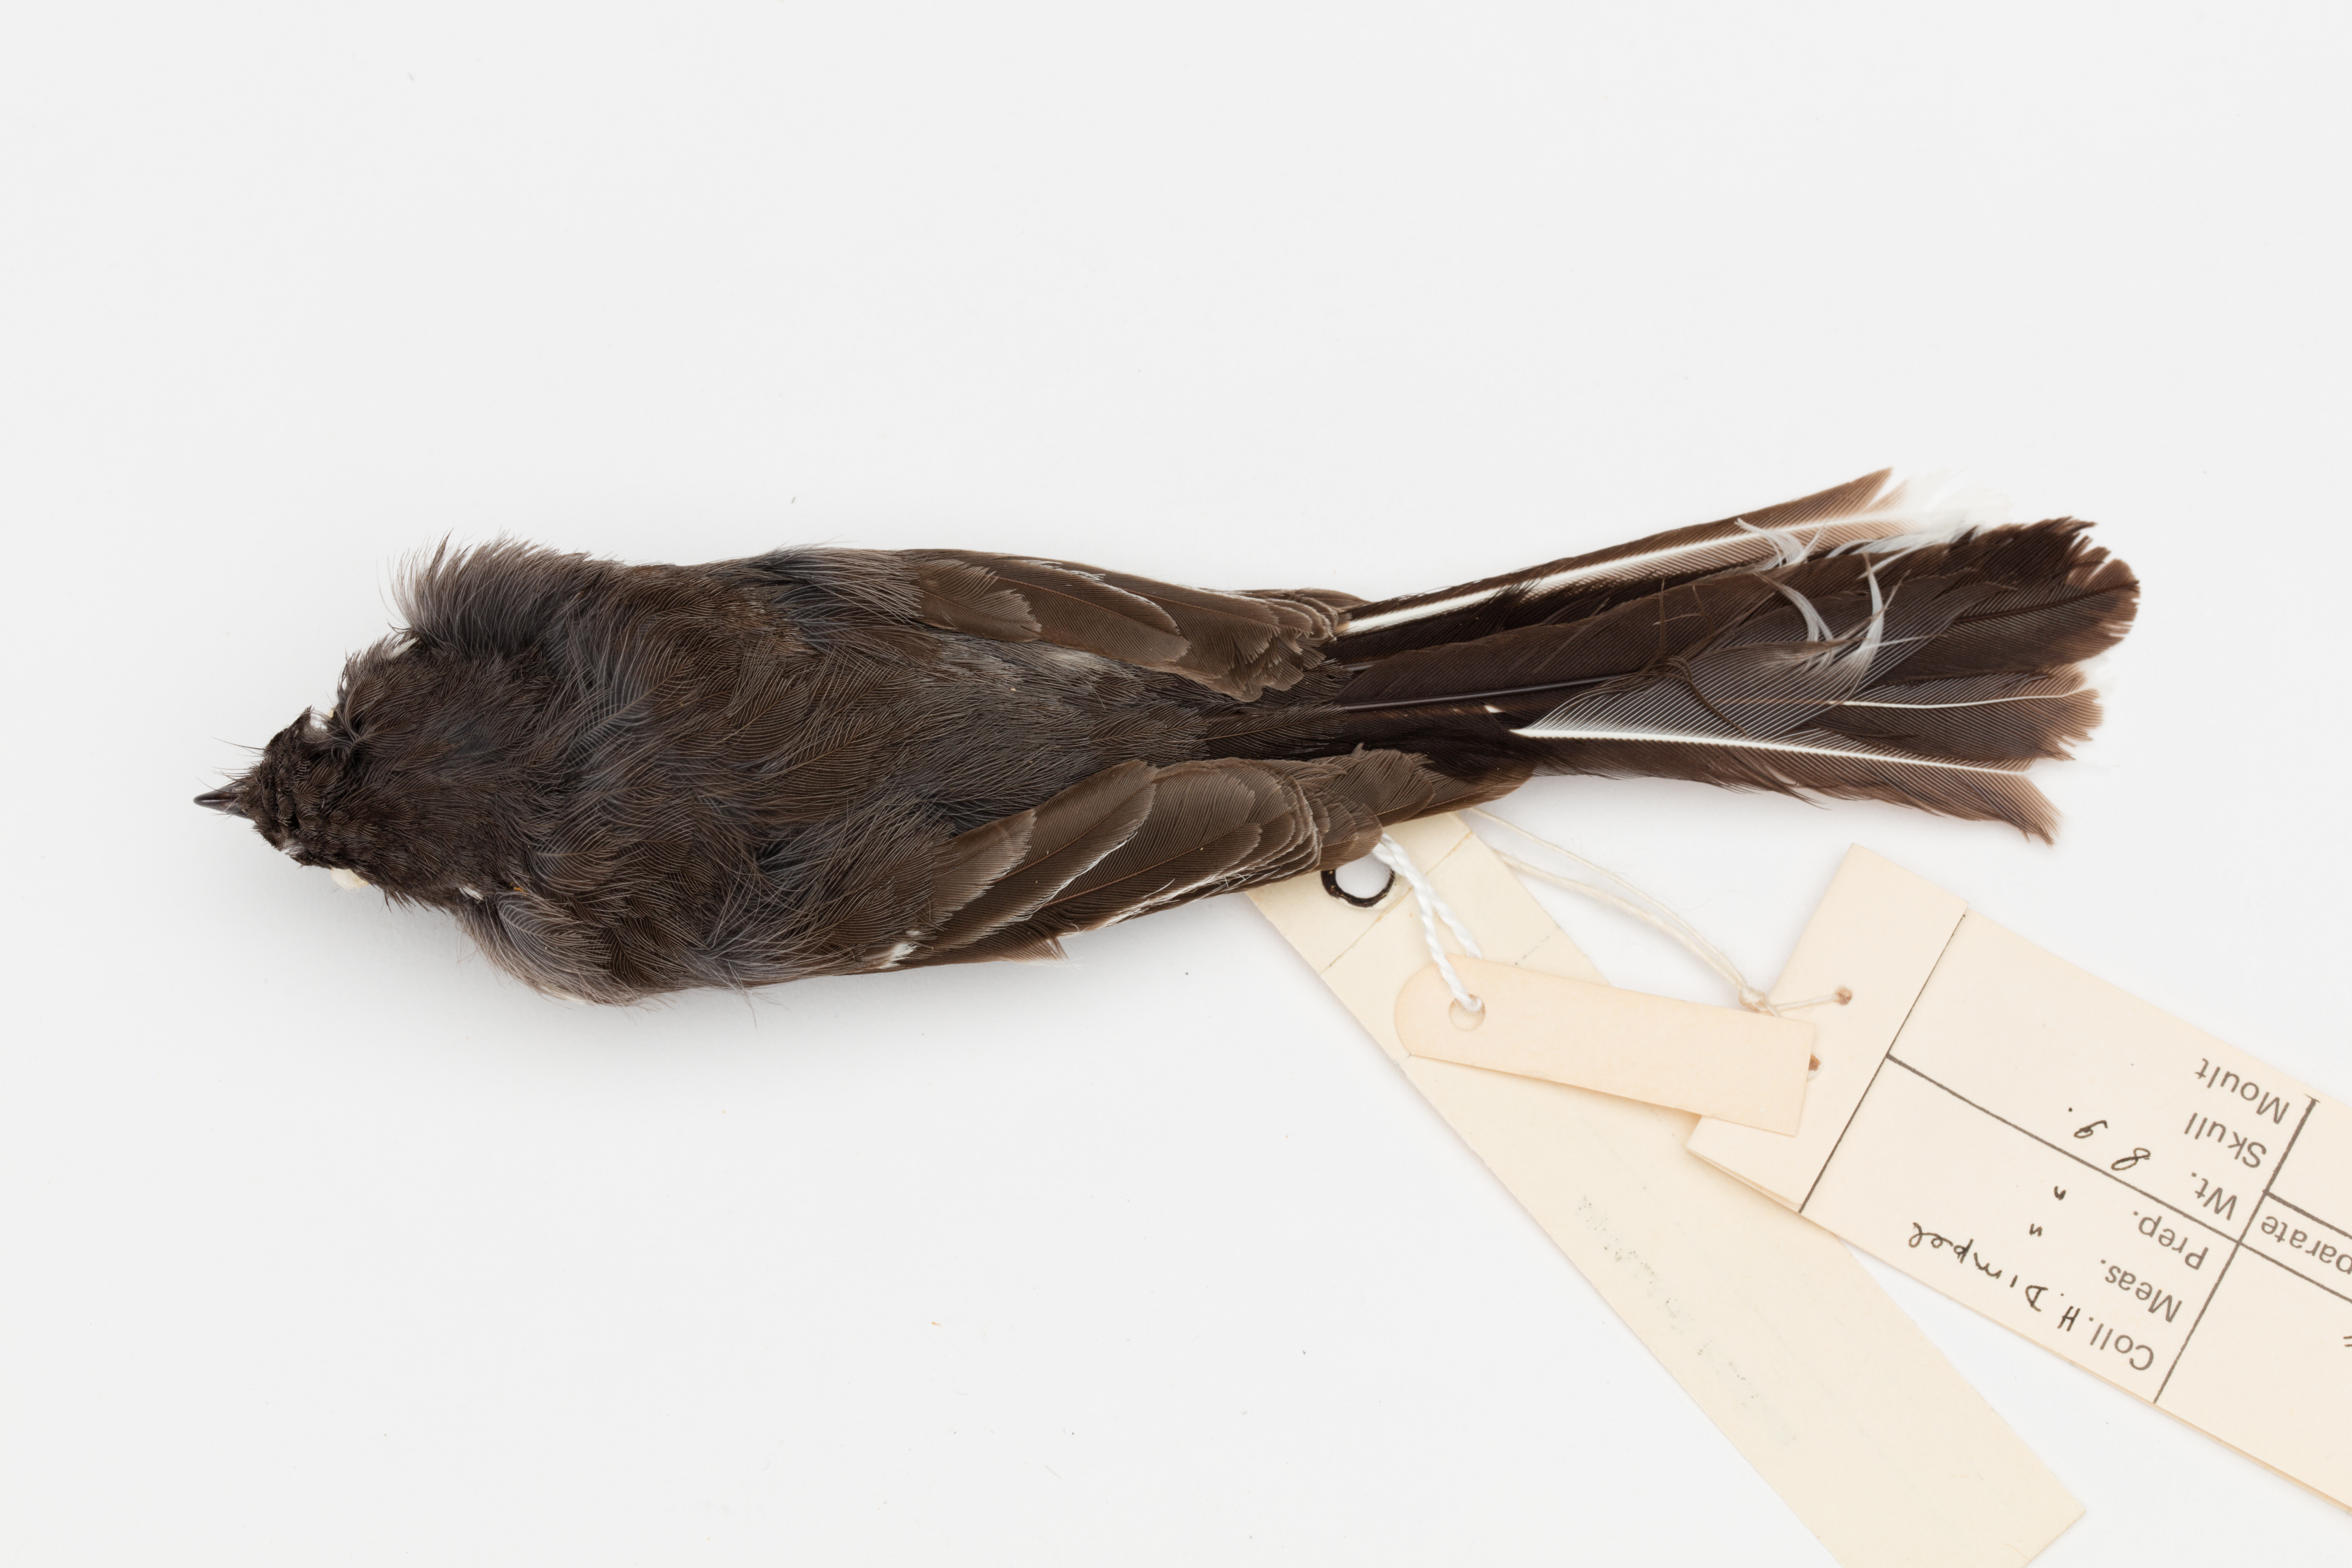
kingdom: Animalia
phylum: Chordata
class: Aves
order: Passeriformes
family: Rhipiduridae
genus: Rhipidura
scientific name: Rhipidura fuliginosa
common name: New zealand fantail
